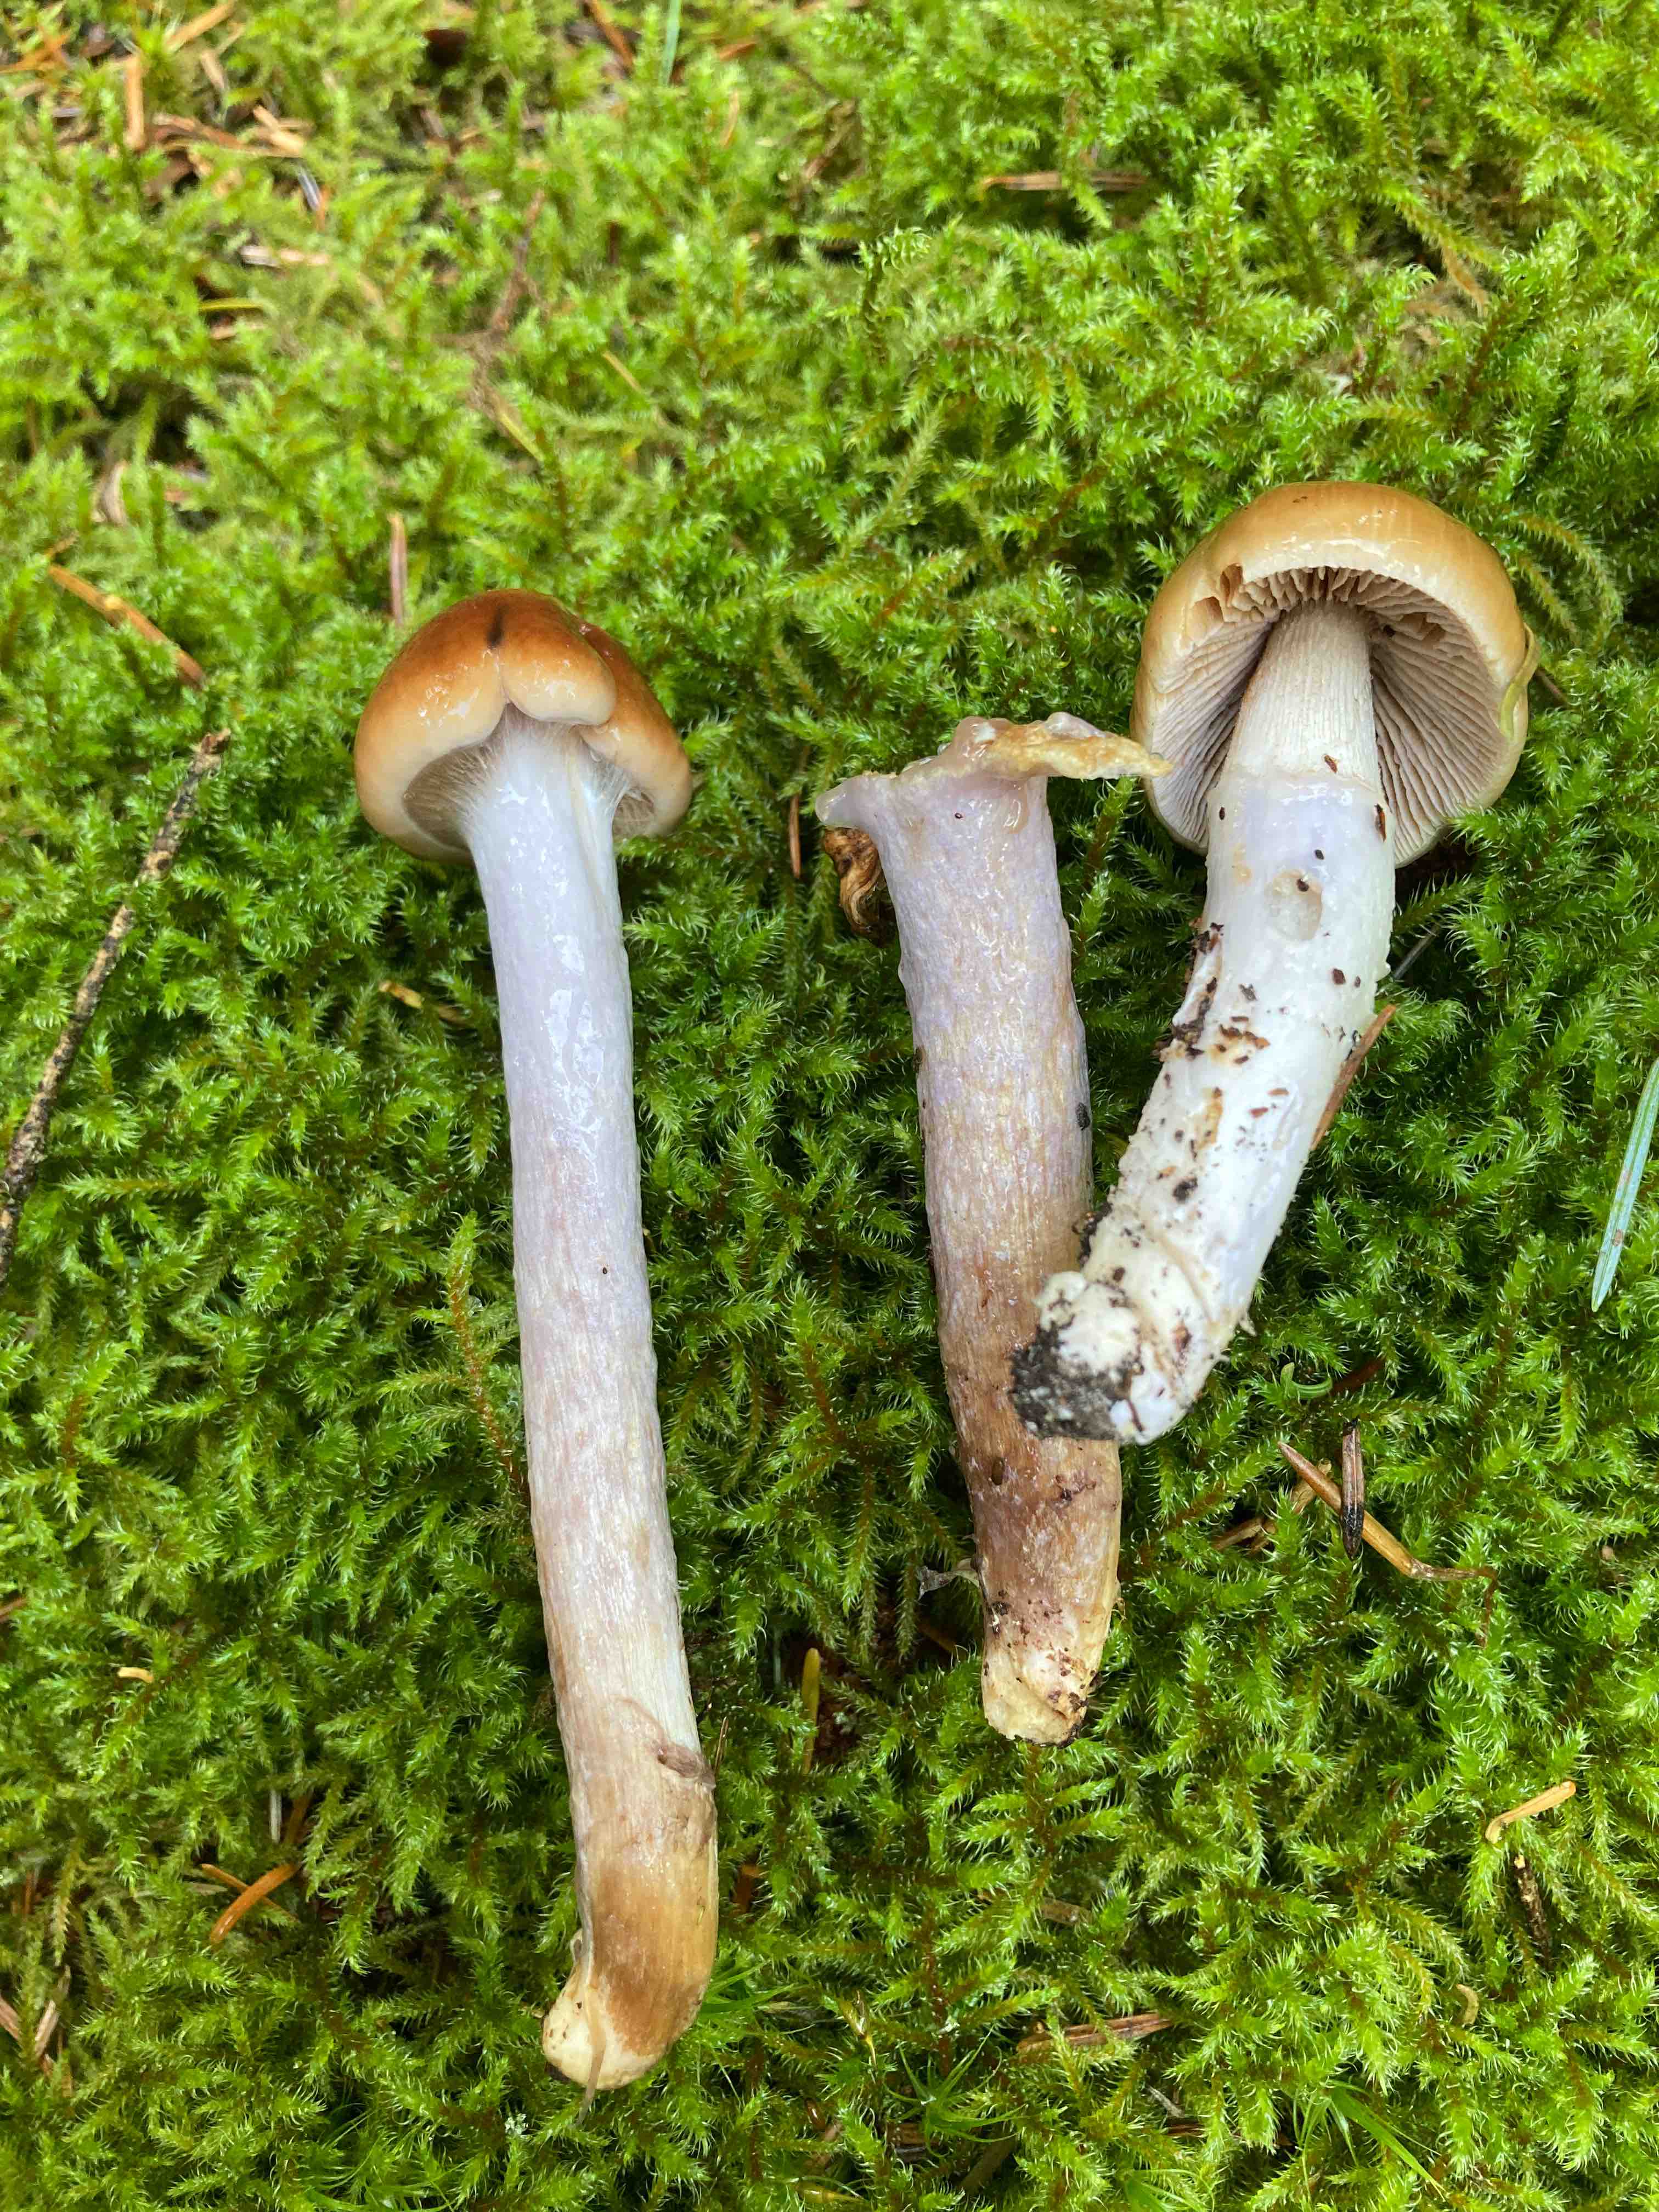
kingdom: Fungi
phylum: Basidiomycota
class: Agaricomycetes
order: Agaricales
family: Cortinariaceae
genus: Cortinarius
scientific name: Cortinarius collinitus
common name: spættet slørhat
